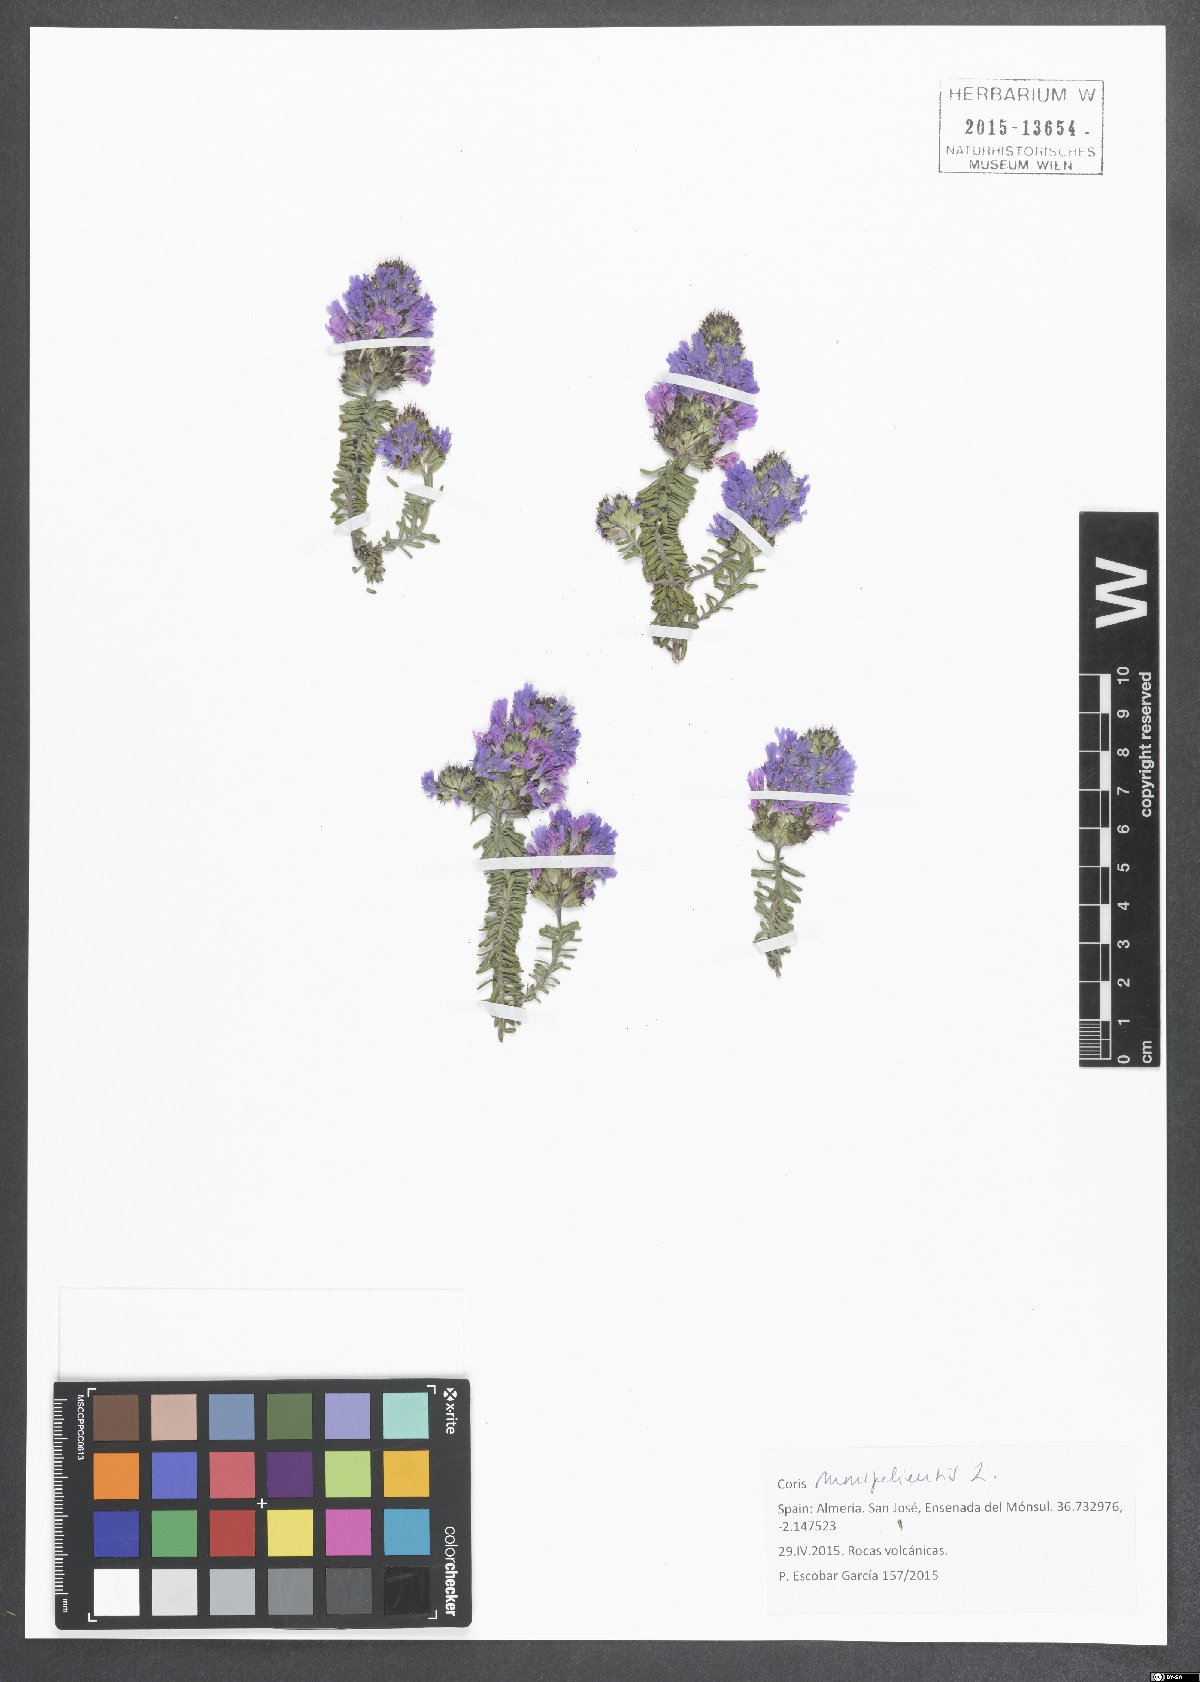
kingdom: Plantae
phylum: Tracheophyta
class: Magnoliopsida
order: Ericales
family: Primulaceae
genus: Coris
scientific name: Coris monspeliensis
